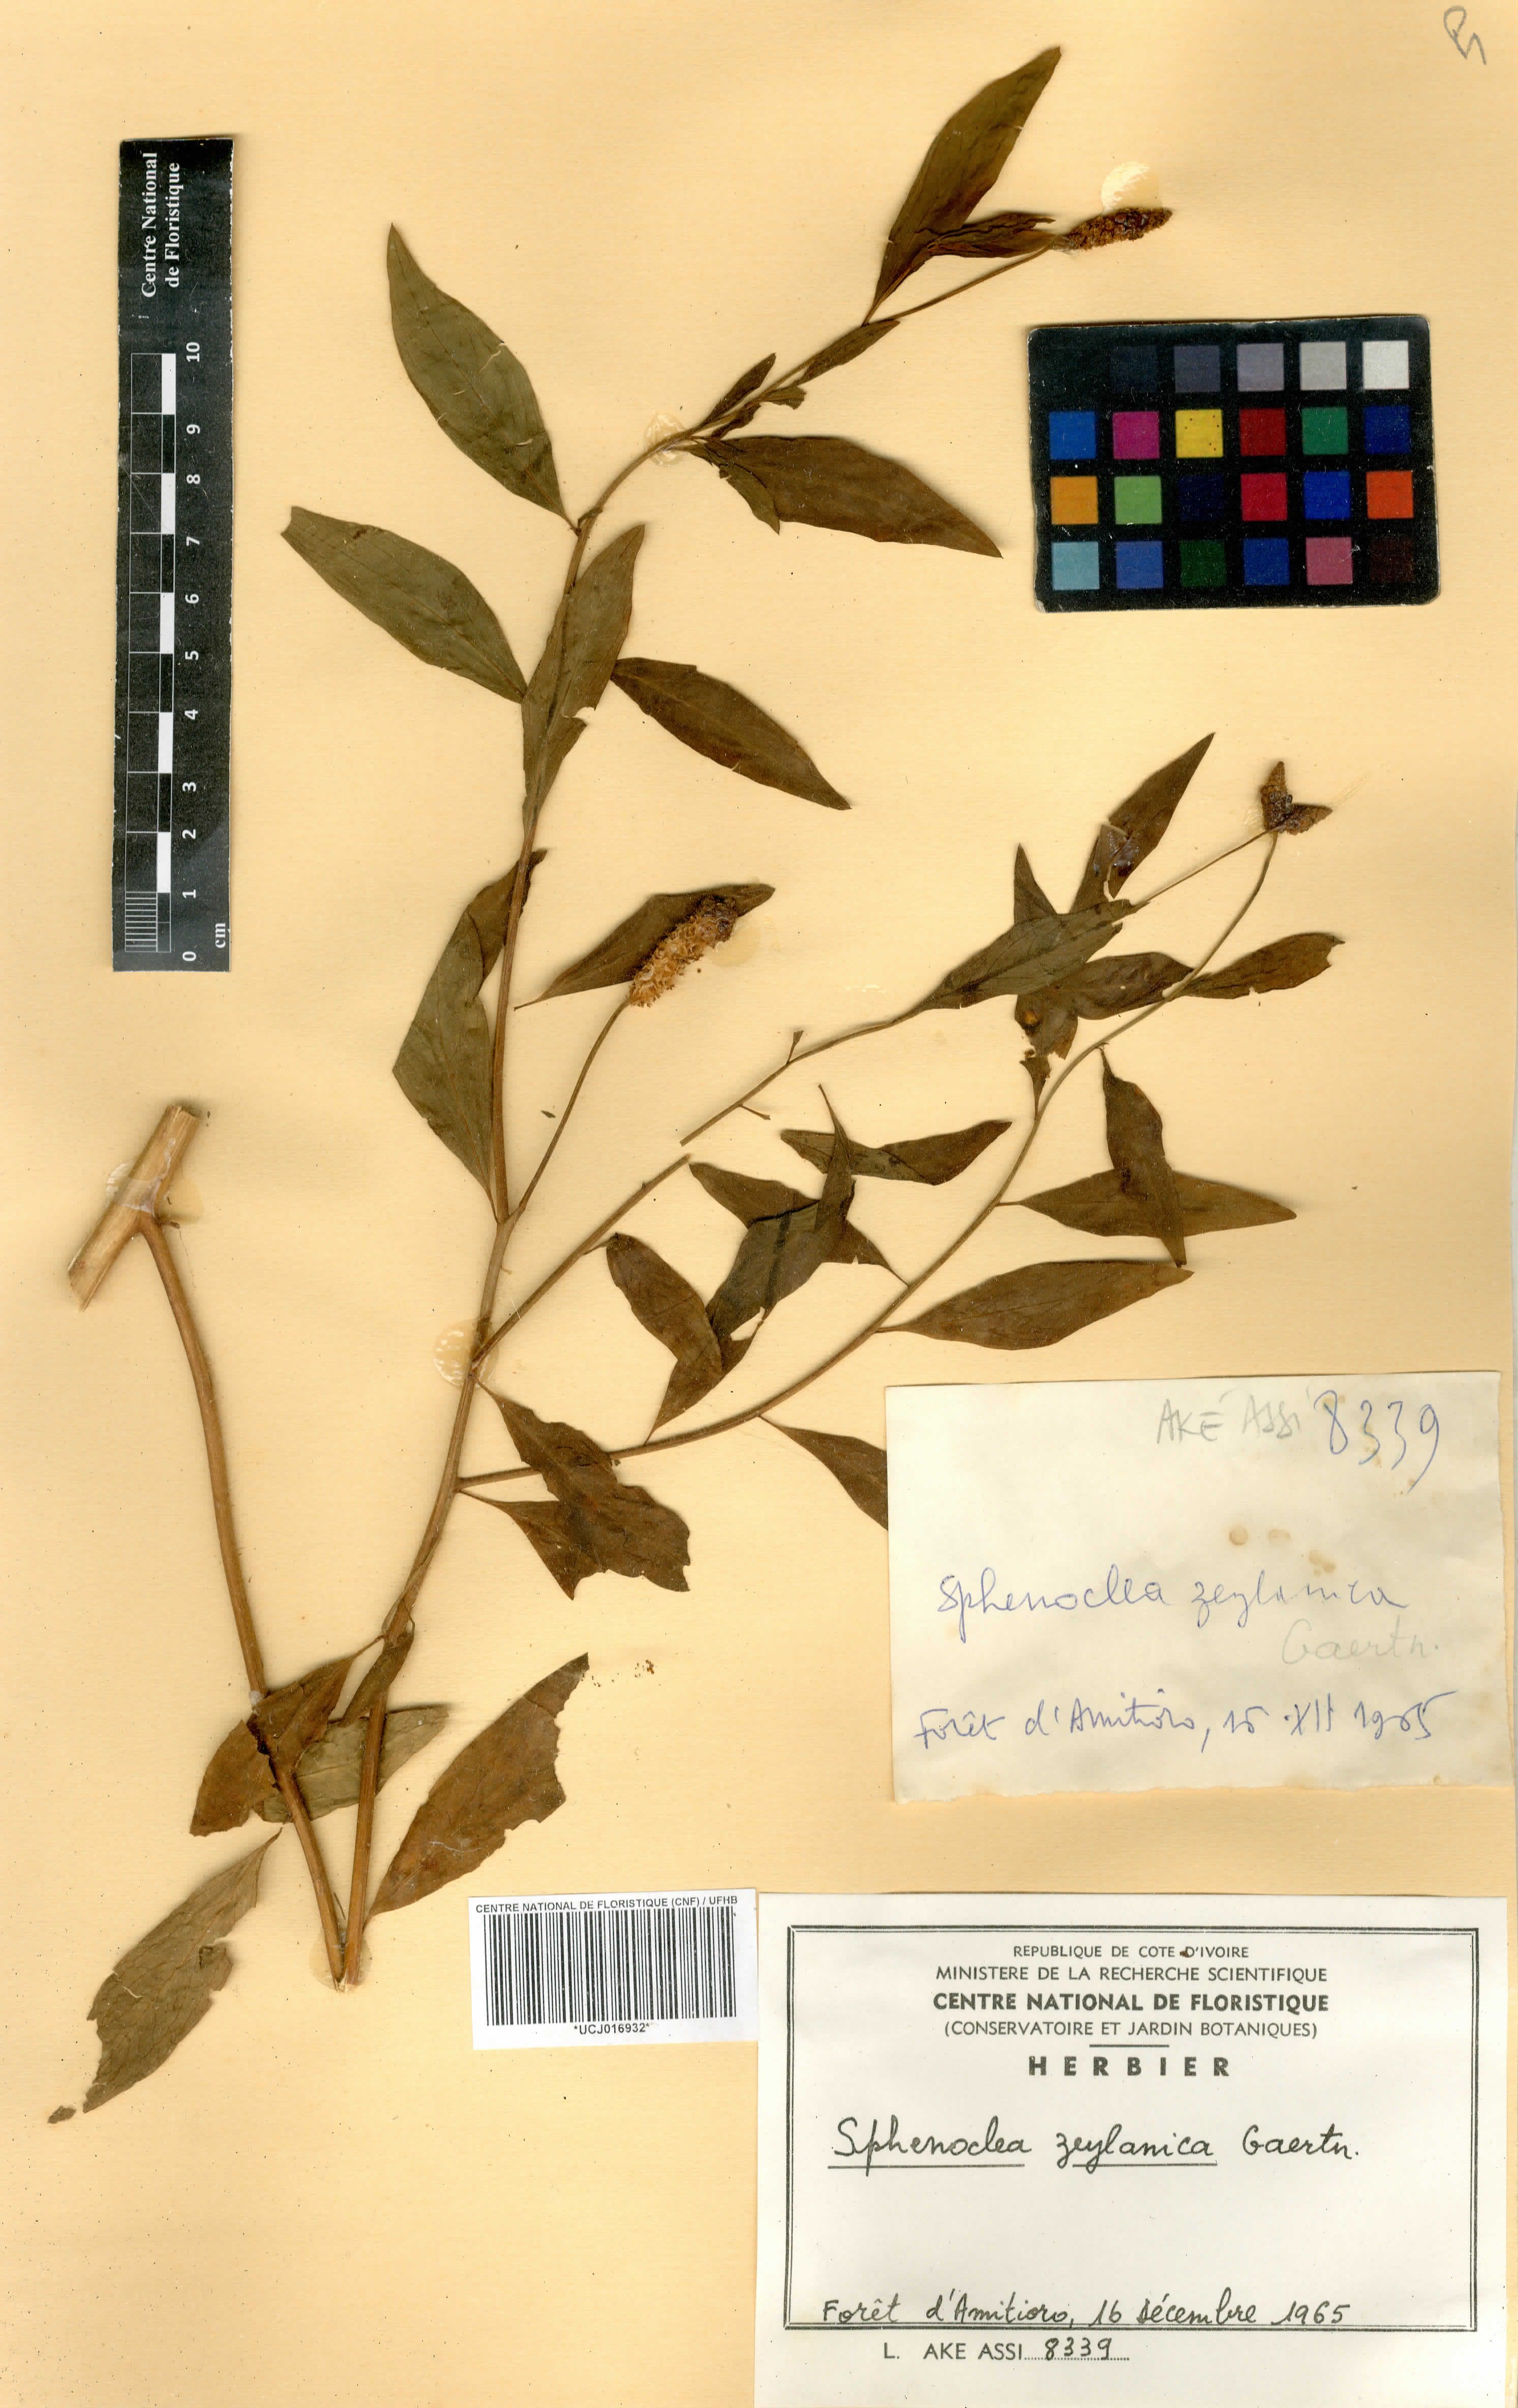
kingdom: Plantae
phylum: Tracheophyta
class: Magnoliopsida
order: Solanales
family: Sphenocleaceae
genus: Sphenoclea
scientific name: Sphenoclea zeylanica
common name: Chickenspike
